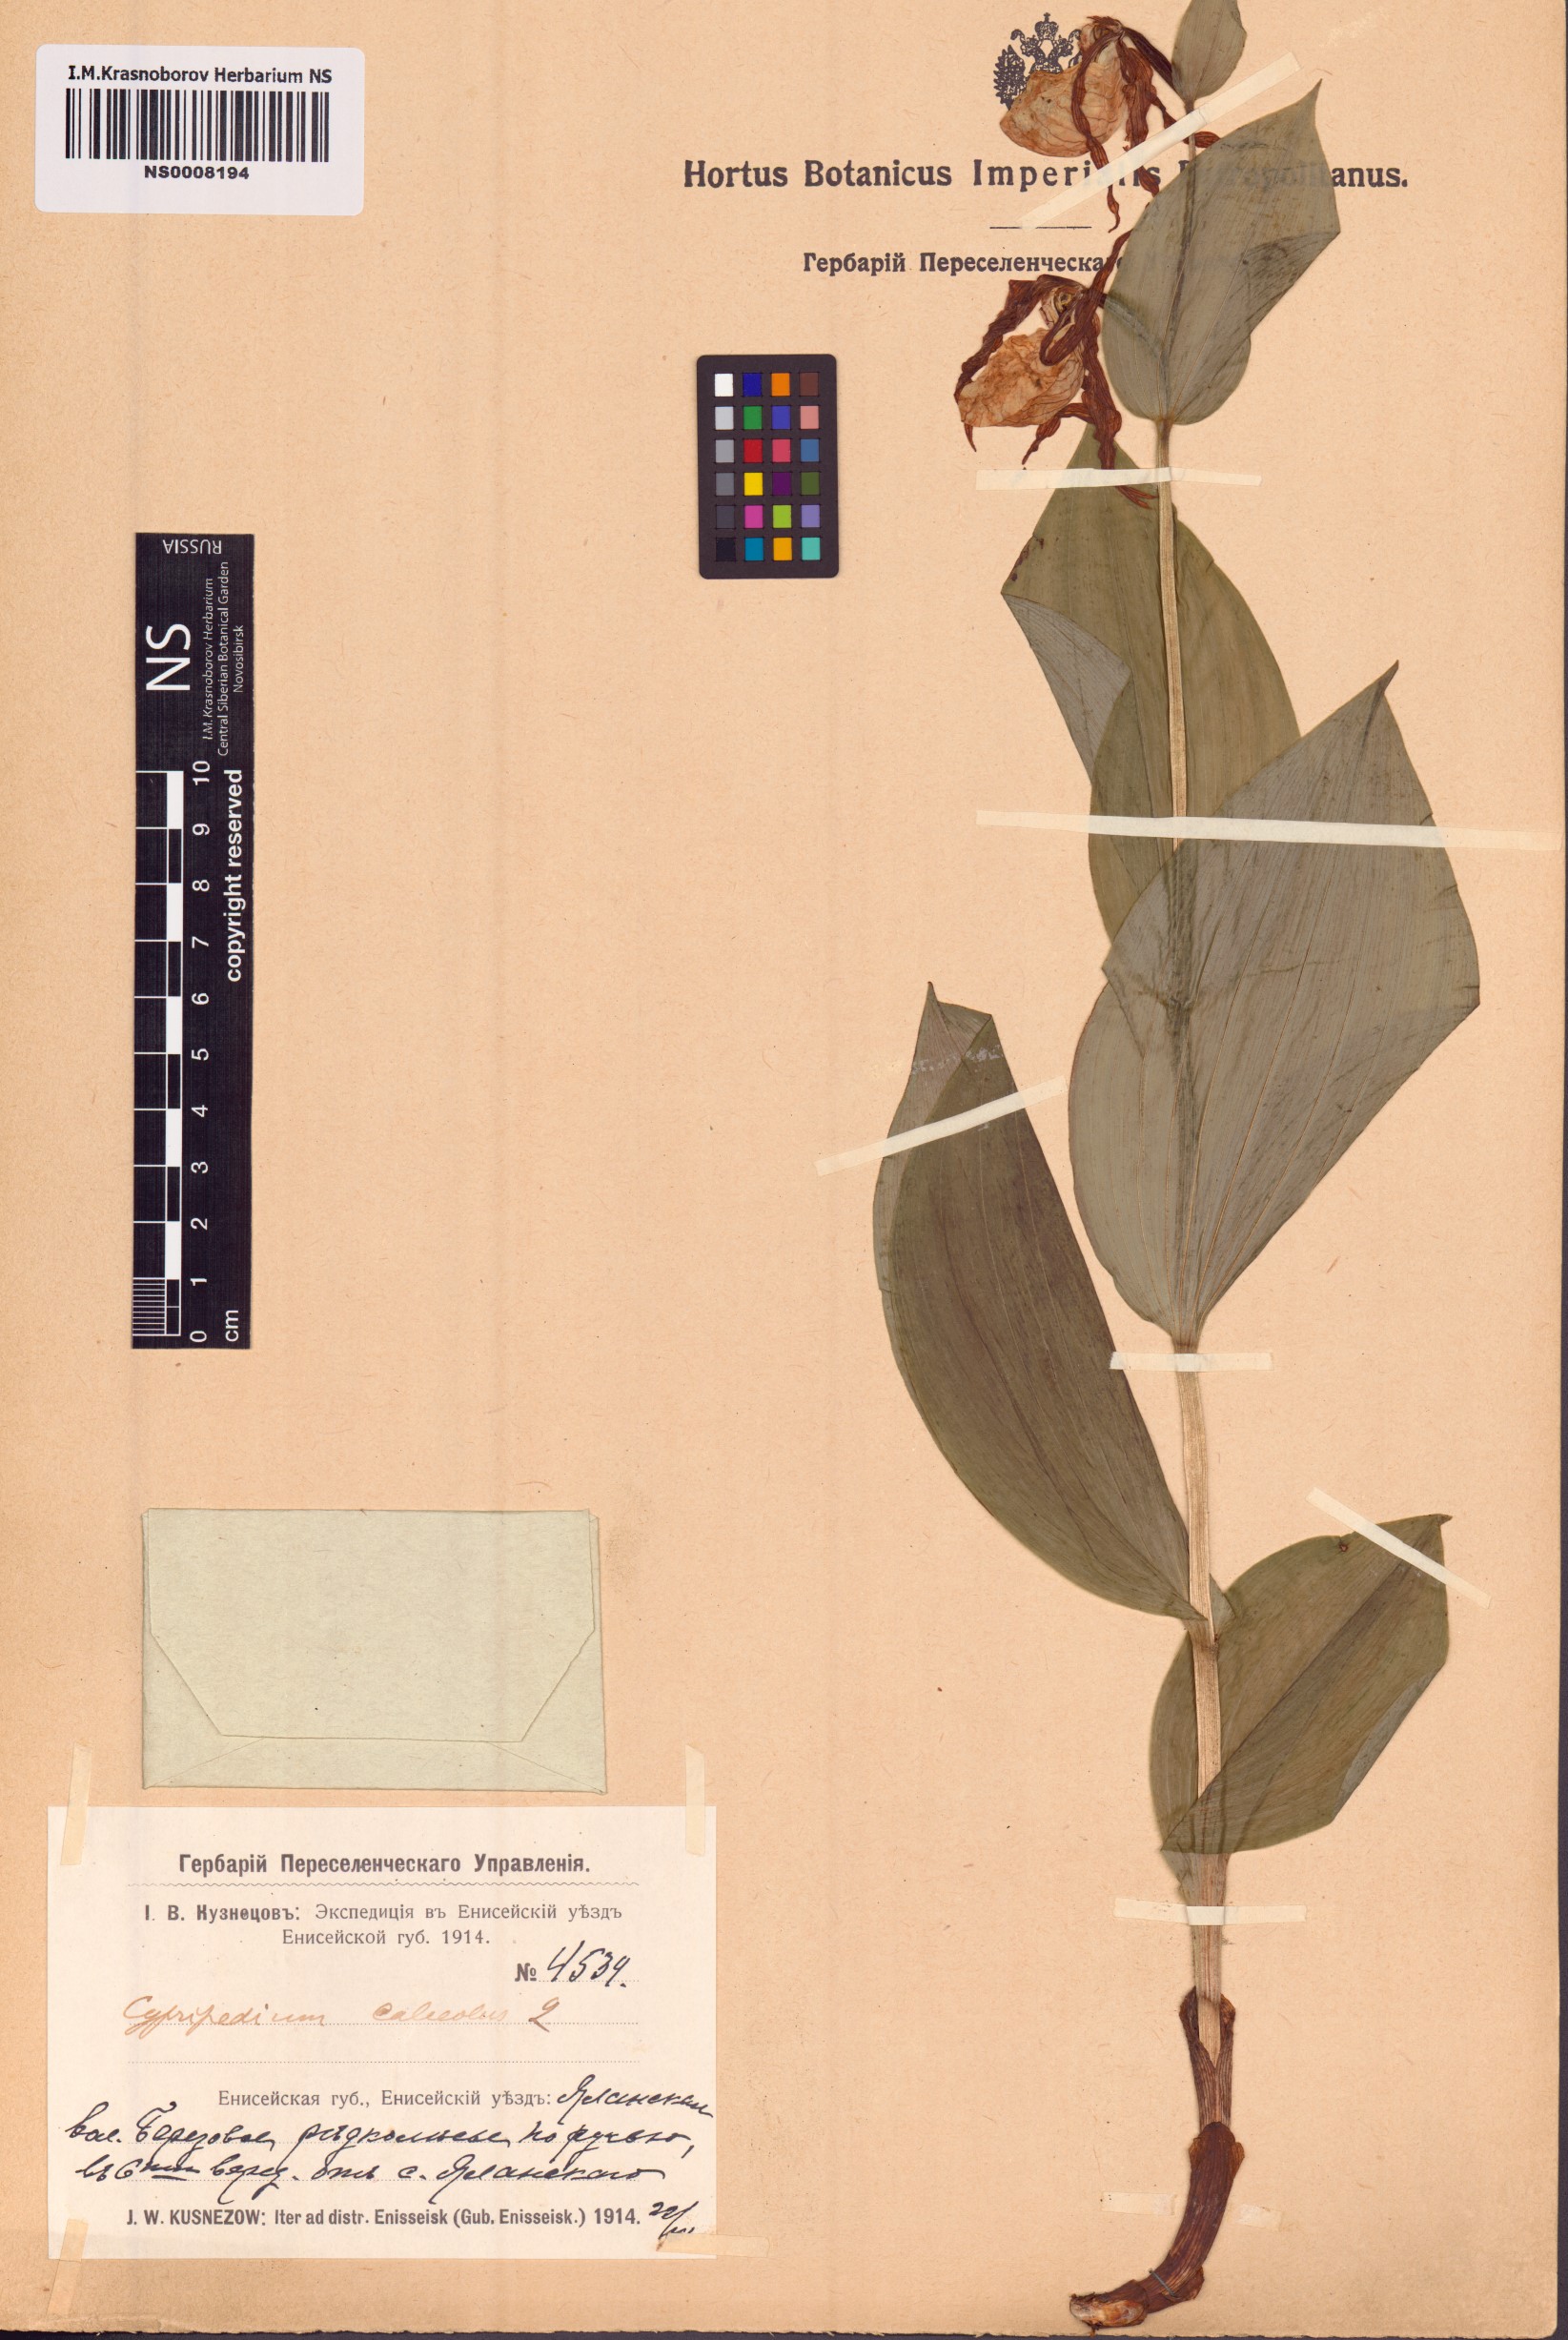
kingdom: Plantae
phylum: Tracheophyta
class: Liliopsida
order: Asparagales
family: Orchidaceae
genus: Cypripedium
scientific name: Cypripedium calceolus
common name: Lady's-slipper
